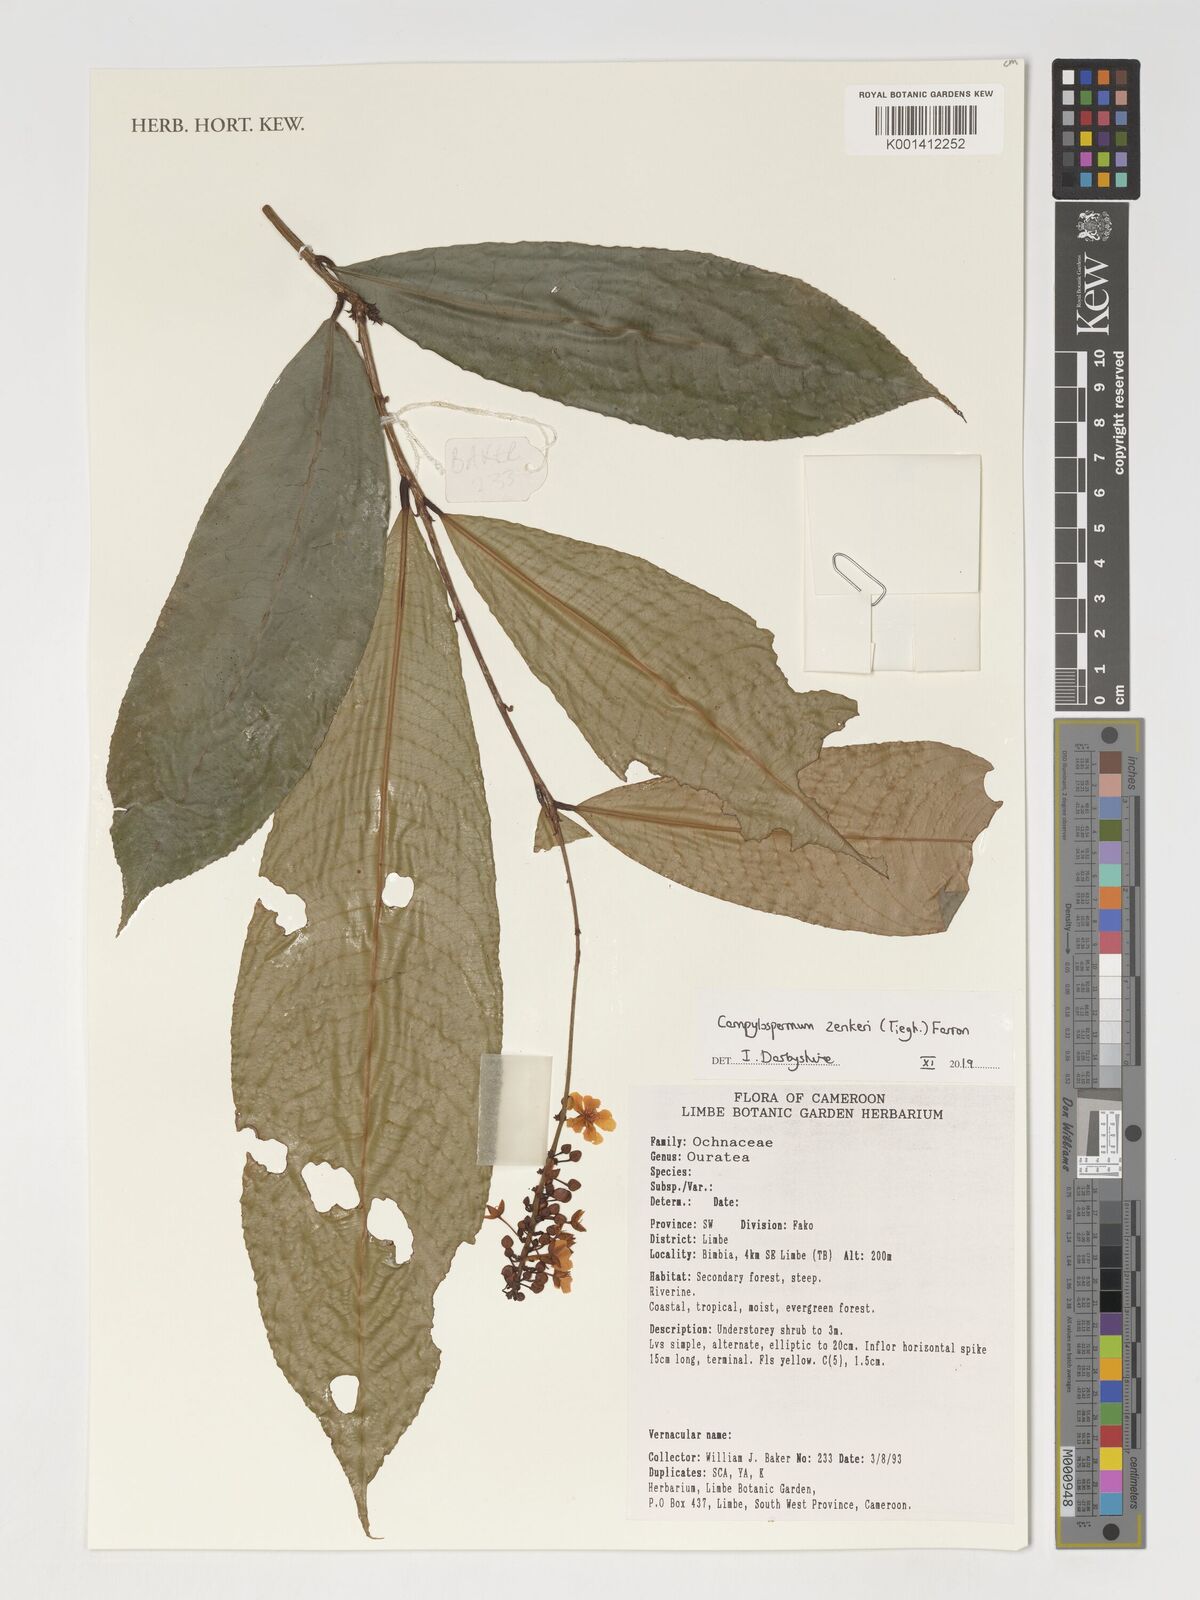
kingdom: Plantae
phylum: Tracheophyta
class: Magnoliopsida
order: Malpighiales
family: Ochnaceae
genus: Campylospermum
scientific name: Campylospermum zenkeri
